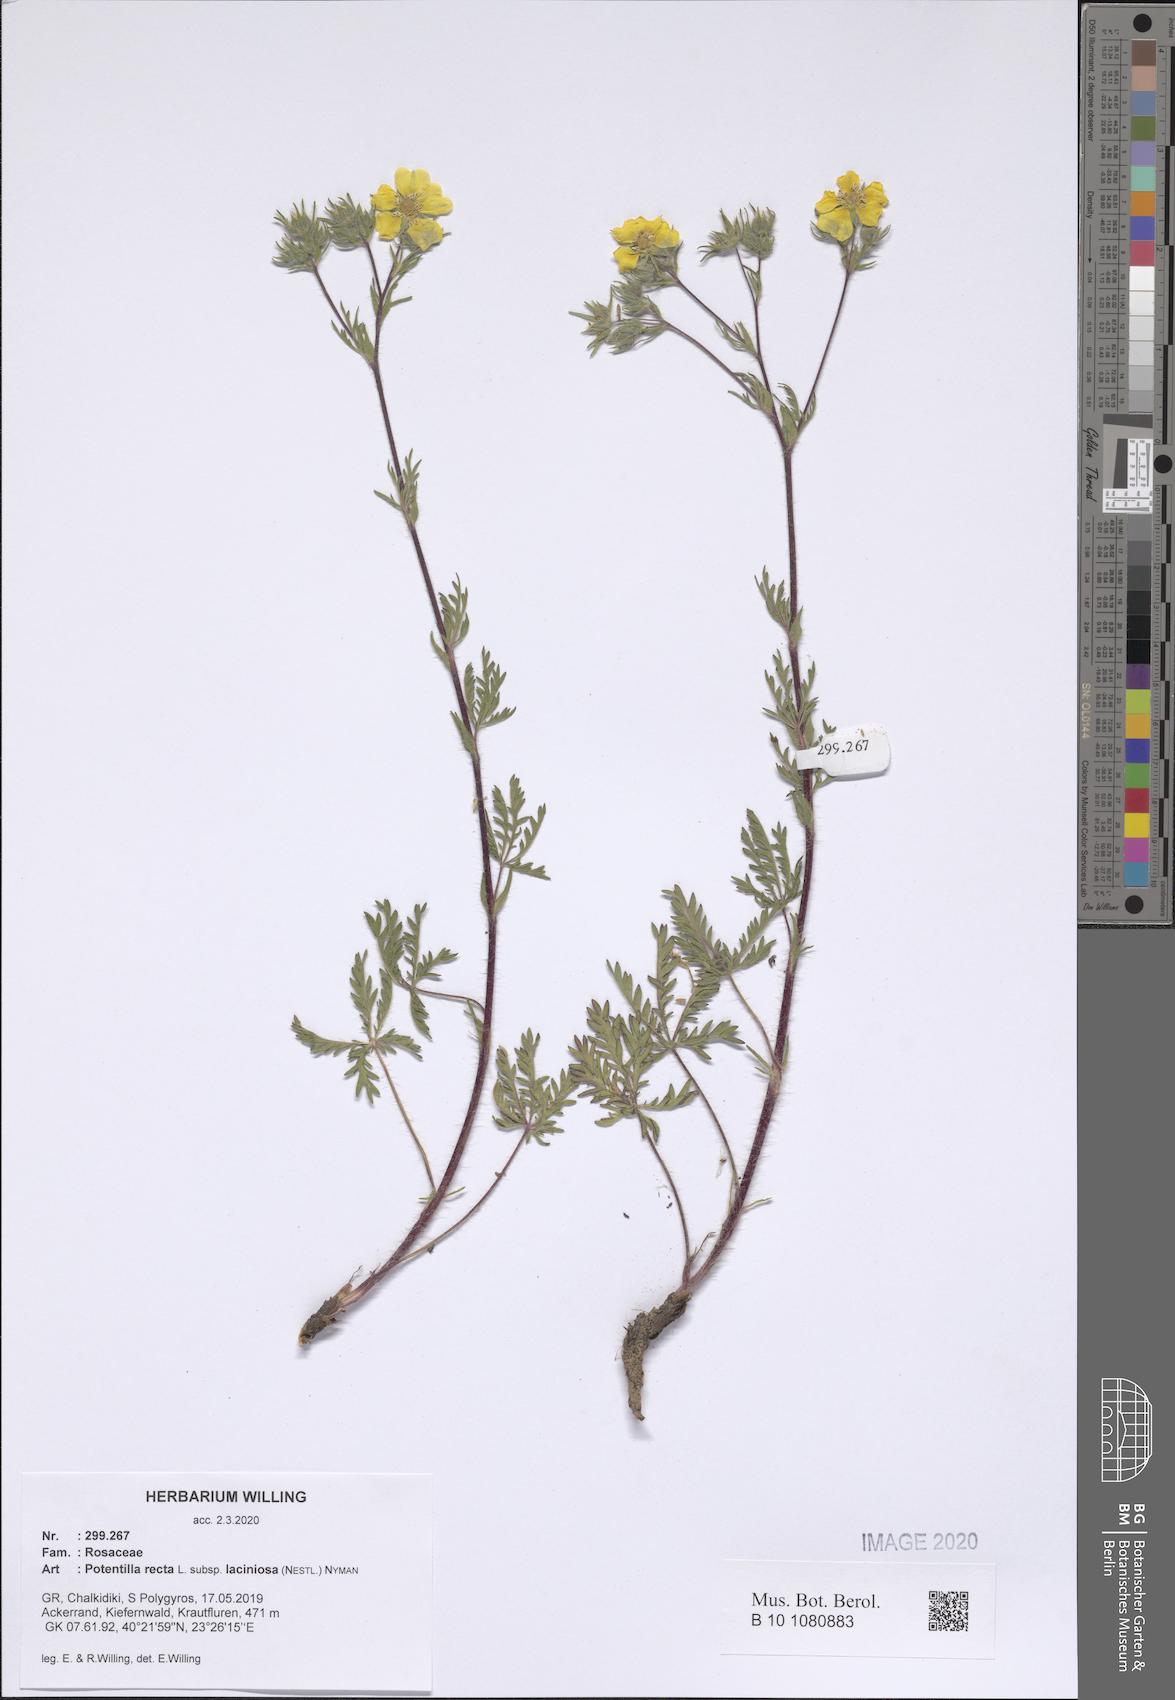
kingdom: Plantae
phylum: Tracheophyta
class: Magnoliopsida
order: Rosales
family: Rosaceae
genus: Potentilla
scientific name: Potentilla recta
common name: Sulphur cinquefoil
